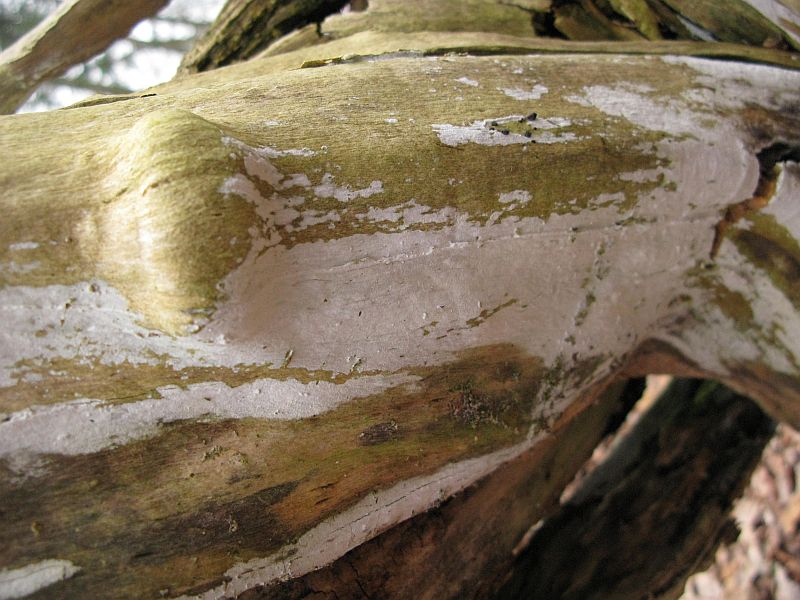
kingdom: Fungi
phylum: Basidiomycota
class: Agaricomycetes
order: Corticiales
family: Corticiaceae
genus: Lyomyces
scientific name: Lyomyces sambuci
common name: almindelig hyldehinde
